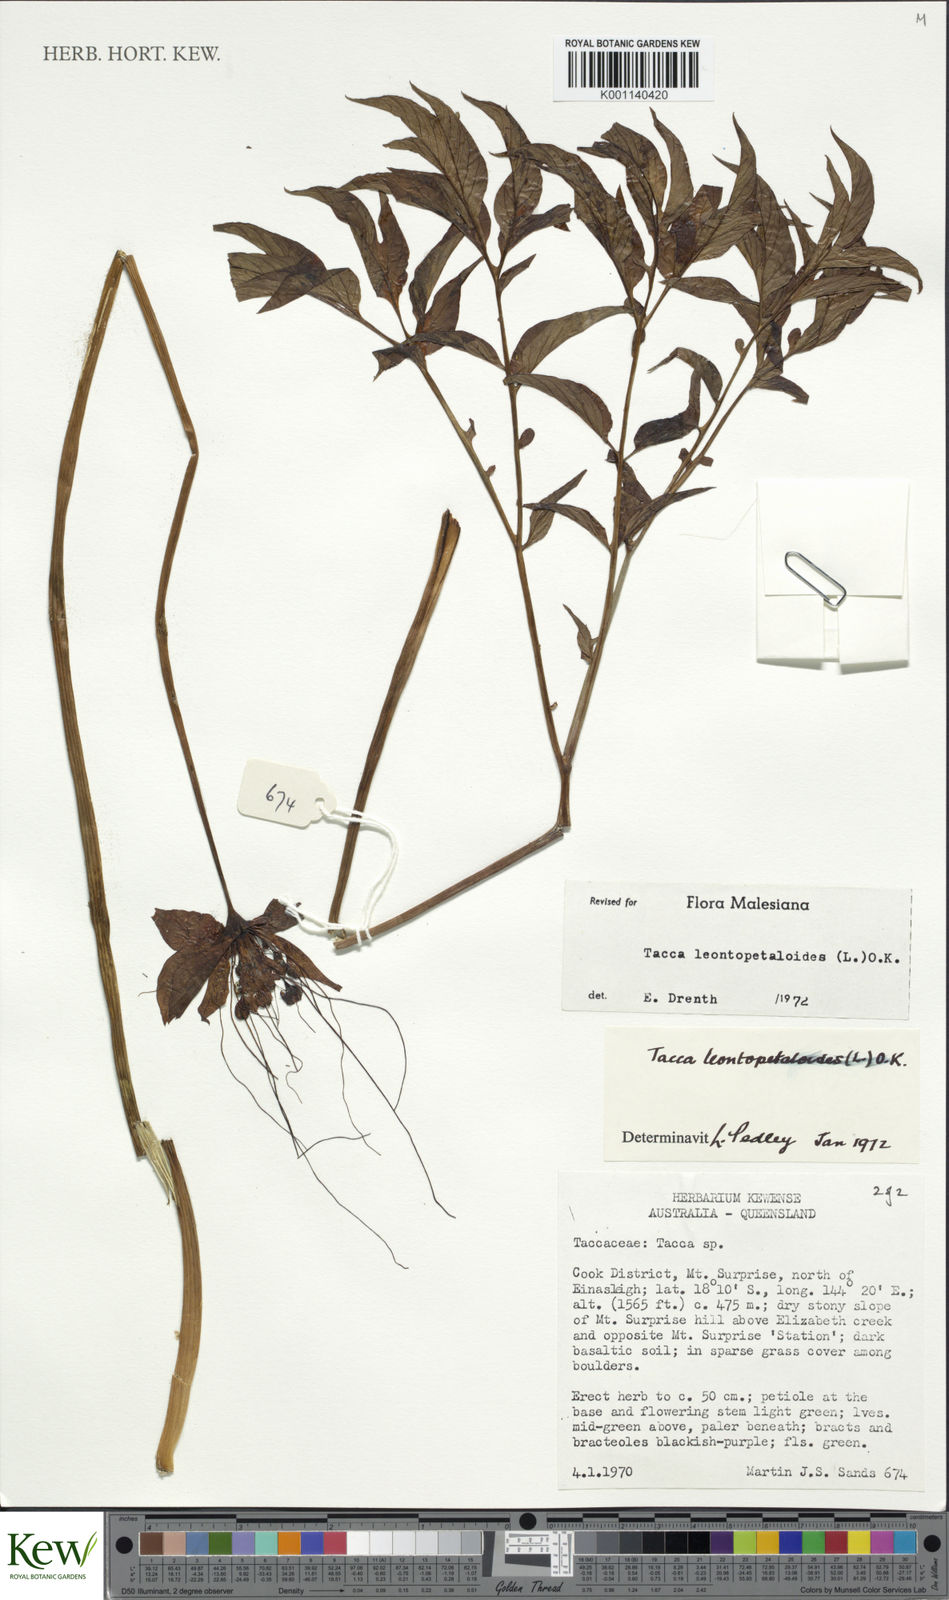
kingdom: Plantae
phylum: Tracheophyta
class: Liliopsida
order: Dioscoreales
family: Dioscoreaceae
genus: Tacca
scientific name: Tacca leontopetaloides
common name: Arrowroot
